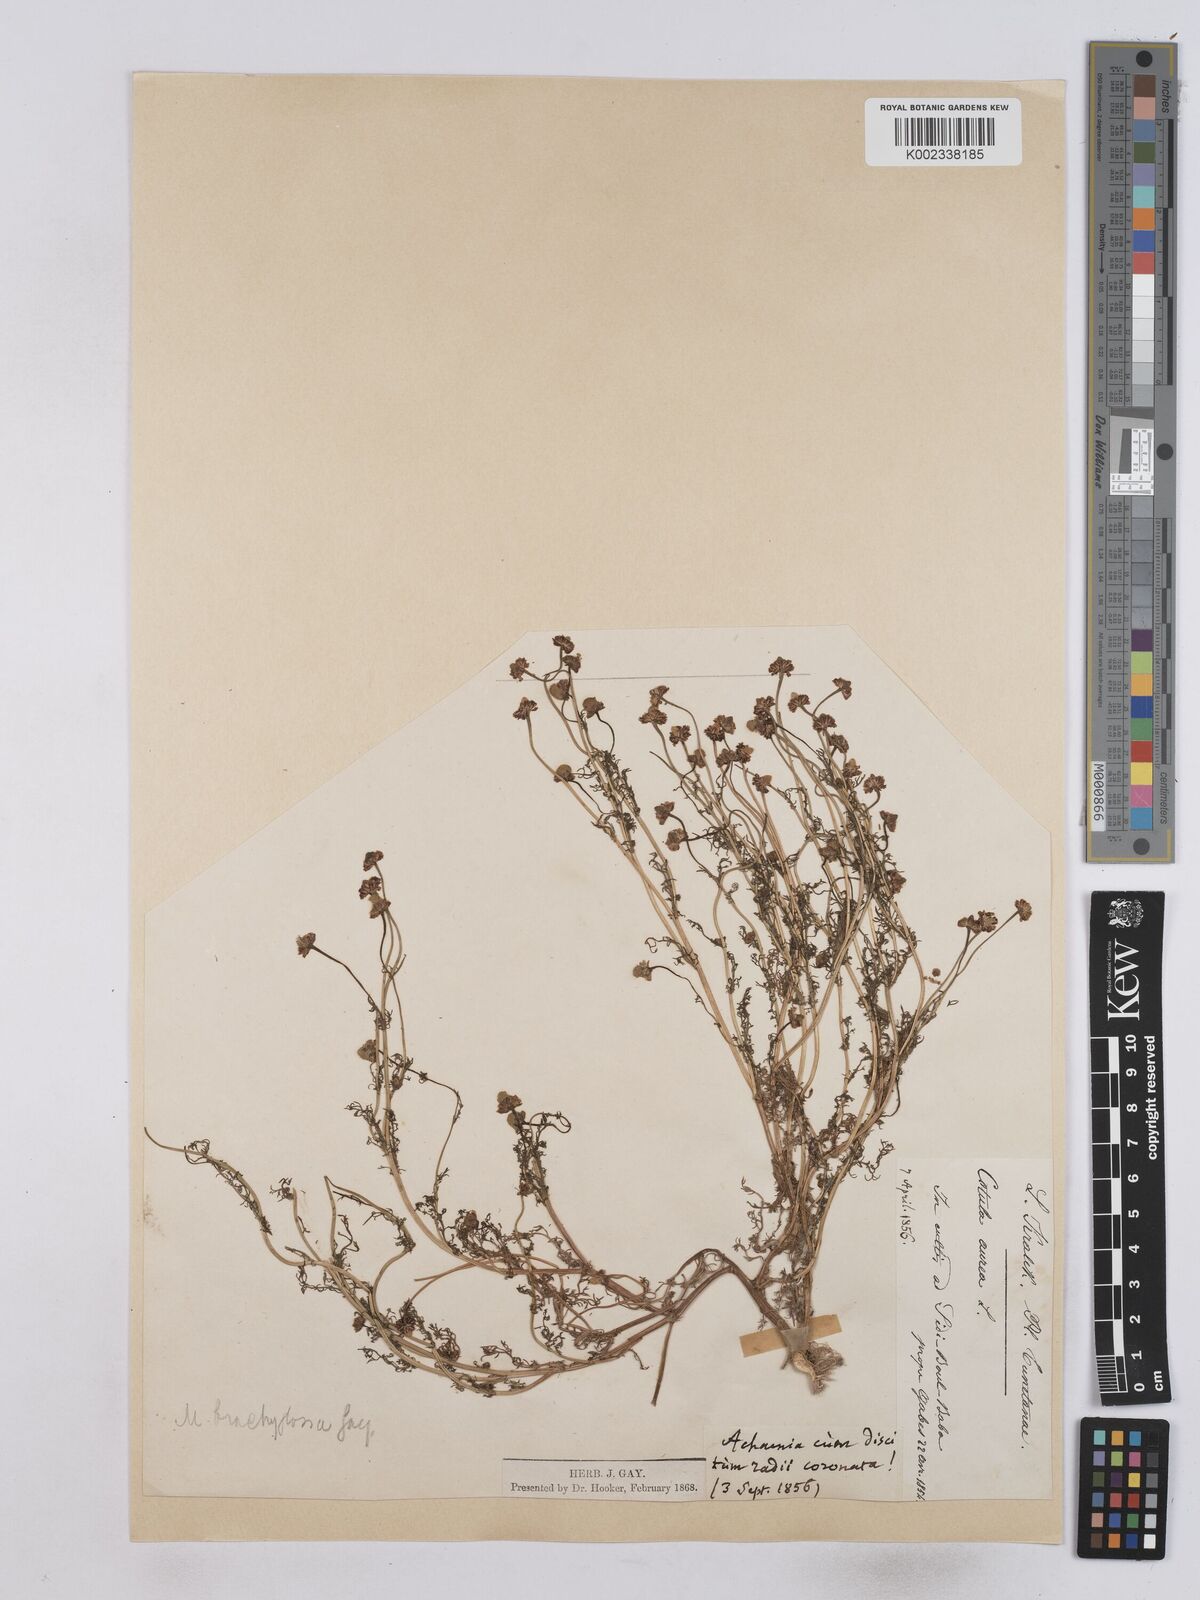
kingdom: Plantae
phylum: Tracheophyta
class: Magnoliopsida
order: Asterales
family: Asteraceae
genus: Matricaria
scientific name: Matricaria aurea
